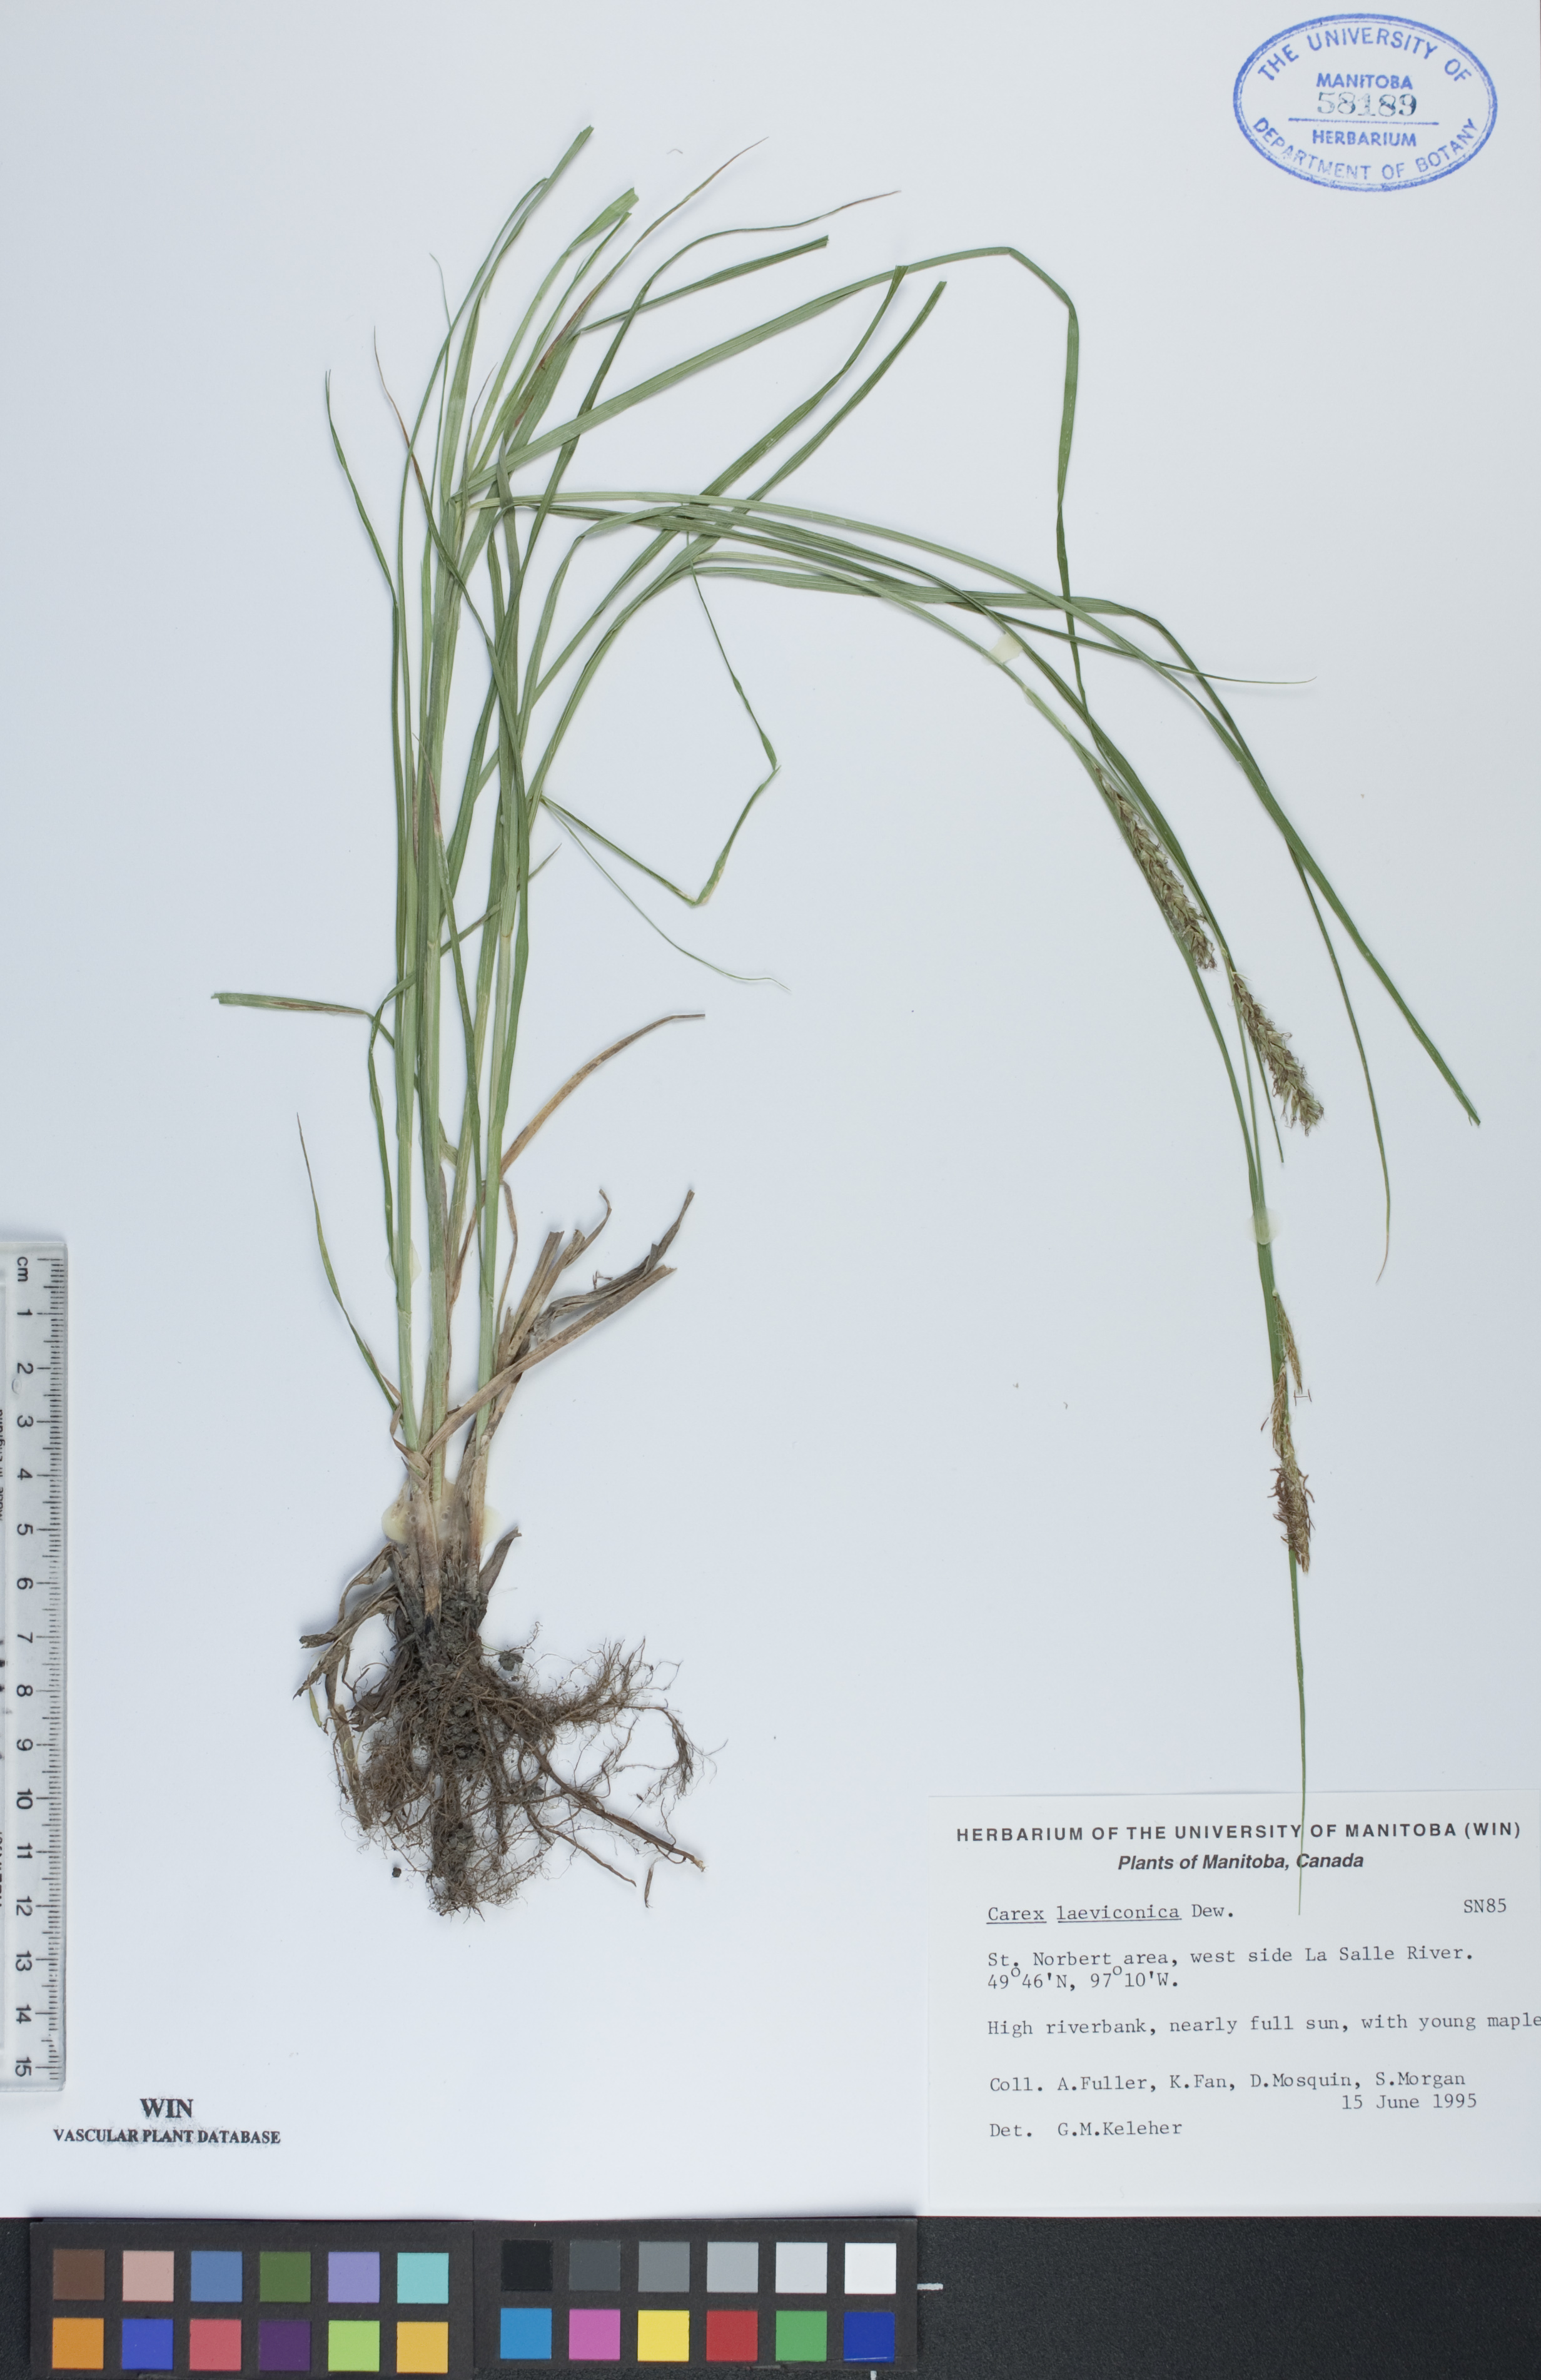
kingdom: Plantae
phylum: Tracheophyta
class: Liliopsida
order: Poales
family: Cyperaceae
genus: Carex
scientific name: Carex laeviconica
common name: Plains slough sedge
